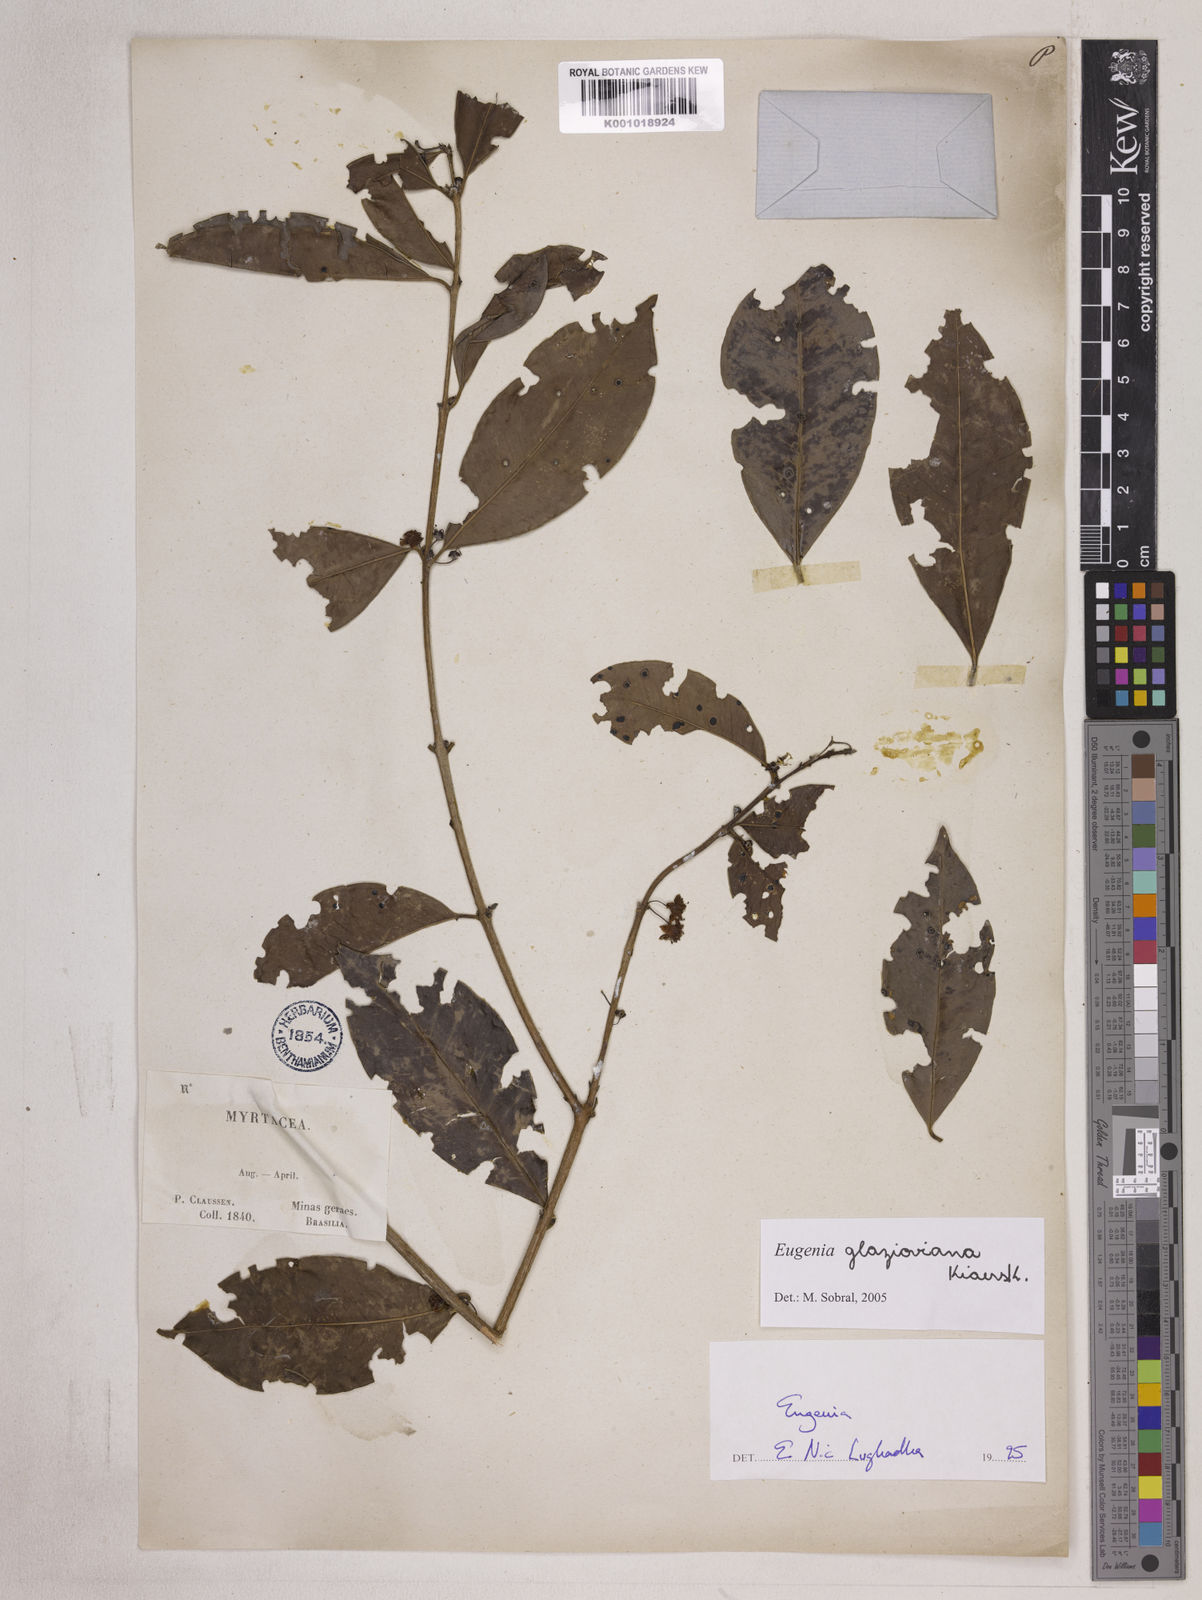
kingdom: Plantae
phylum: Tracheophyta
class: Magnoliopsida
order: Myrtales
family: Myrtaceae
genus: Eugenia
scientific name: Eugenia francavilleana
